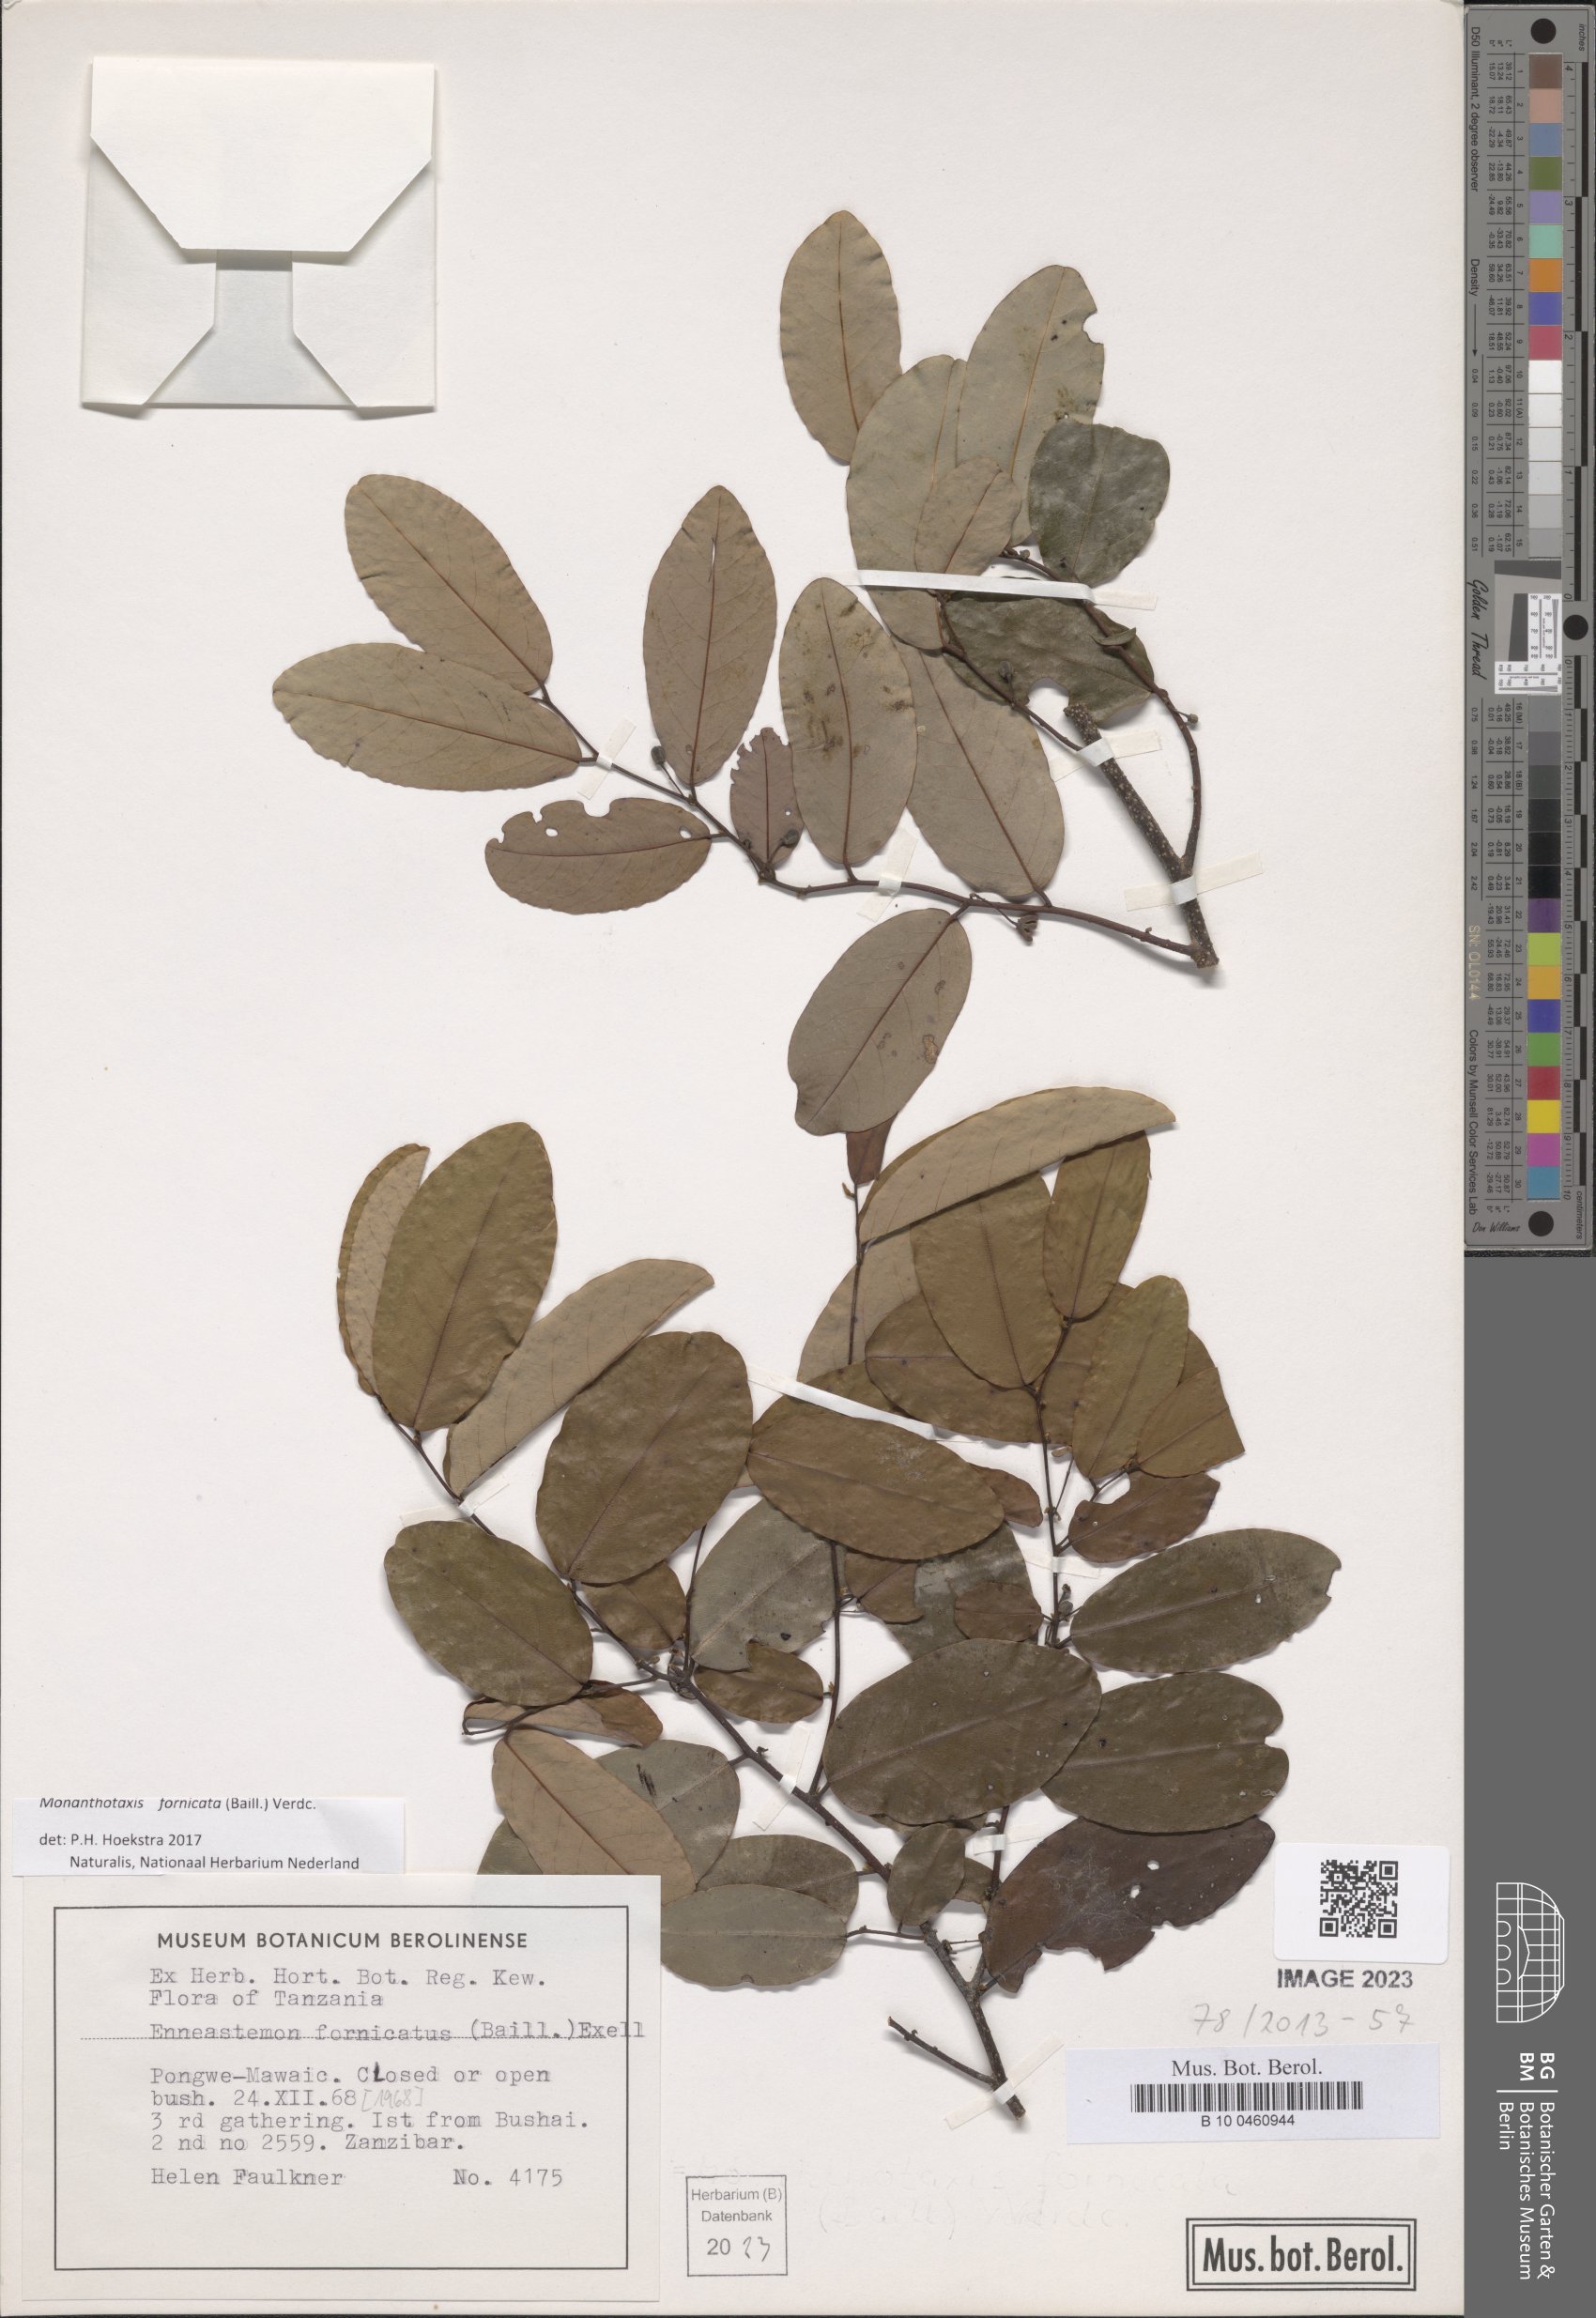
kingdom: Plantae
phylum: Tracheophyta
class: Magnoliopsida
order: Magnoliales
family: Annonaceae
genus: Monanthotaxis
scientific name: Monanthotaxis fornicata
